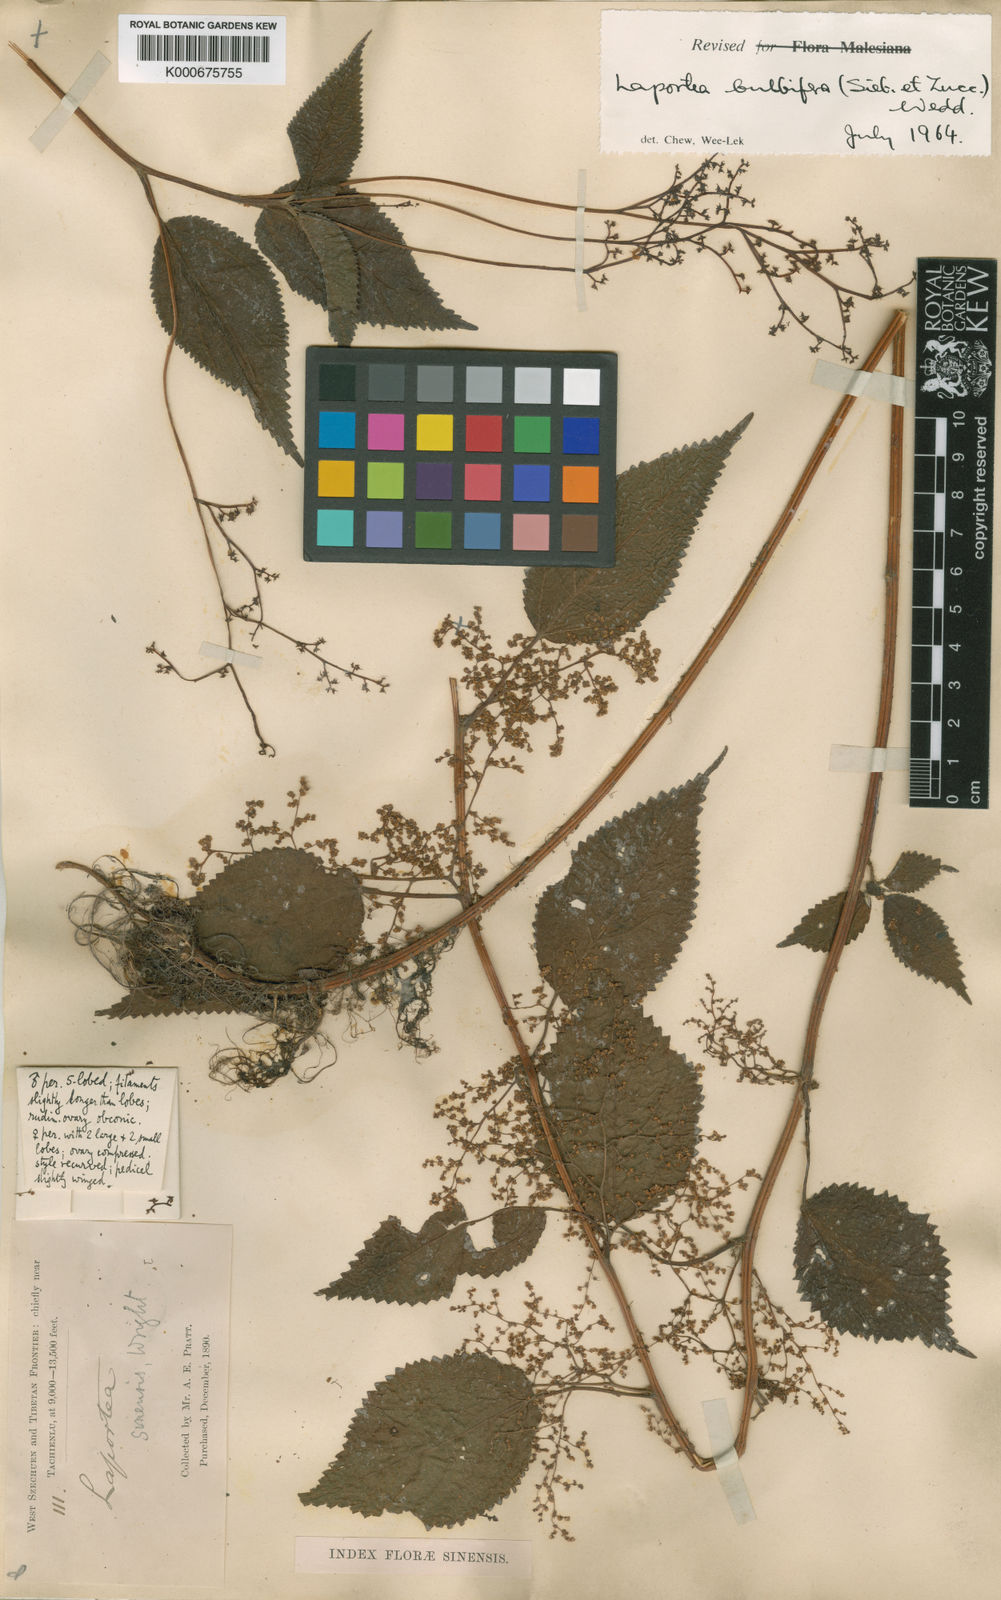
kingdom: Plantae
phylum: Tracheophyta
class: Magnoliopsida
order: Rosales
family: Urticaceae
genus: Laportea
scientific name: Laportea bulbifera
